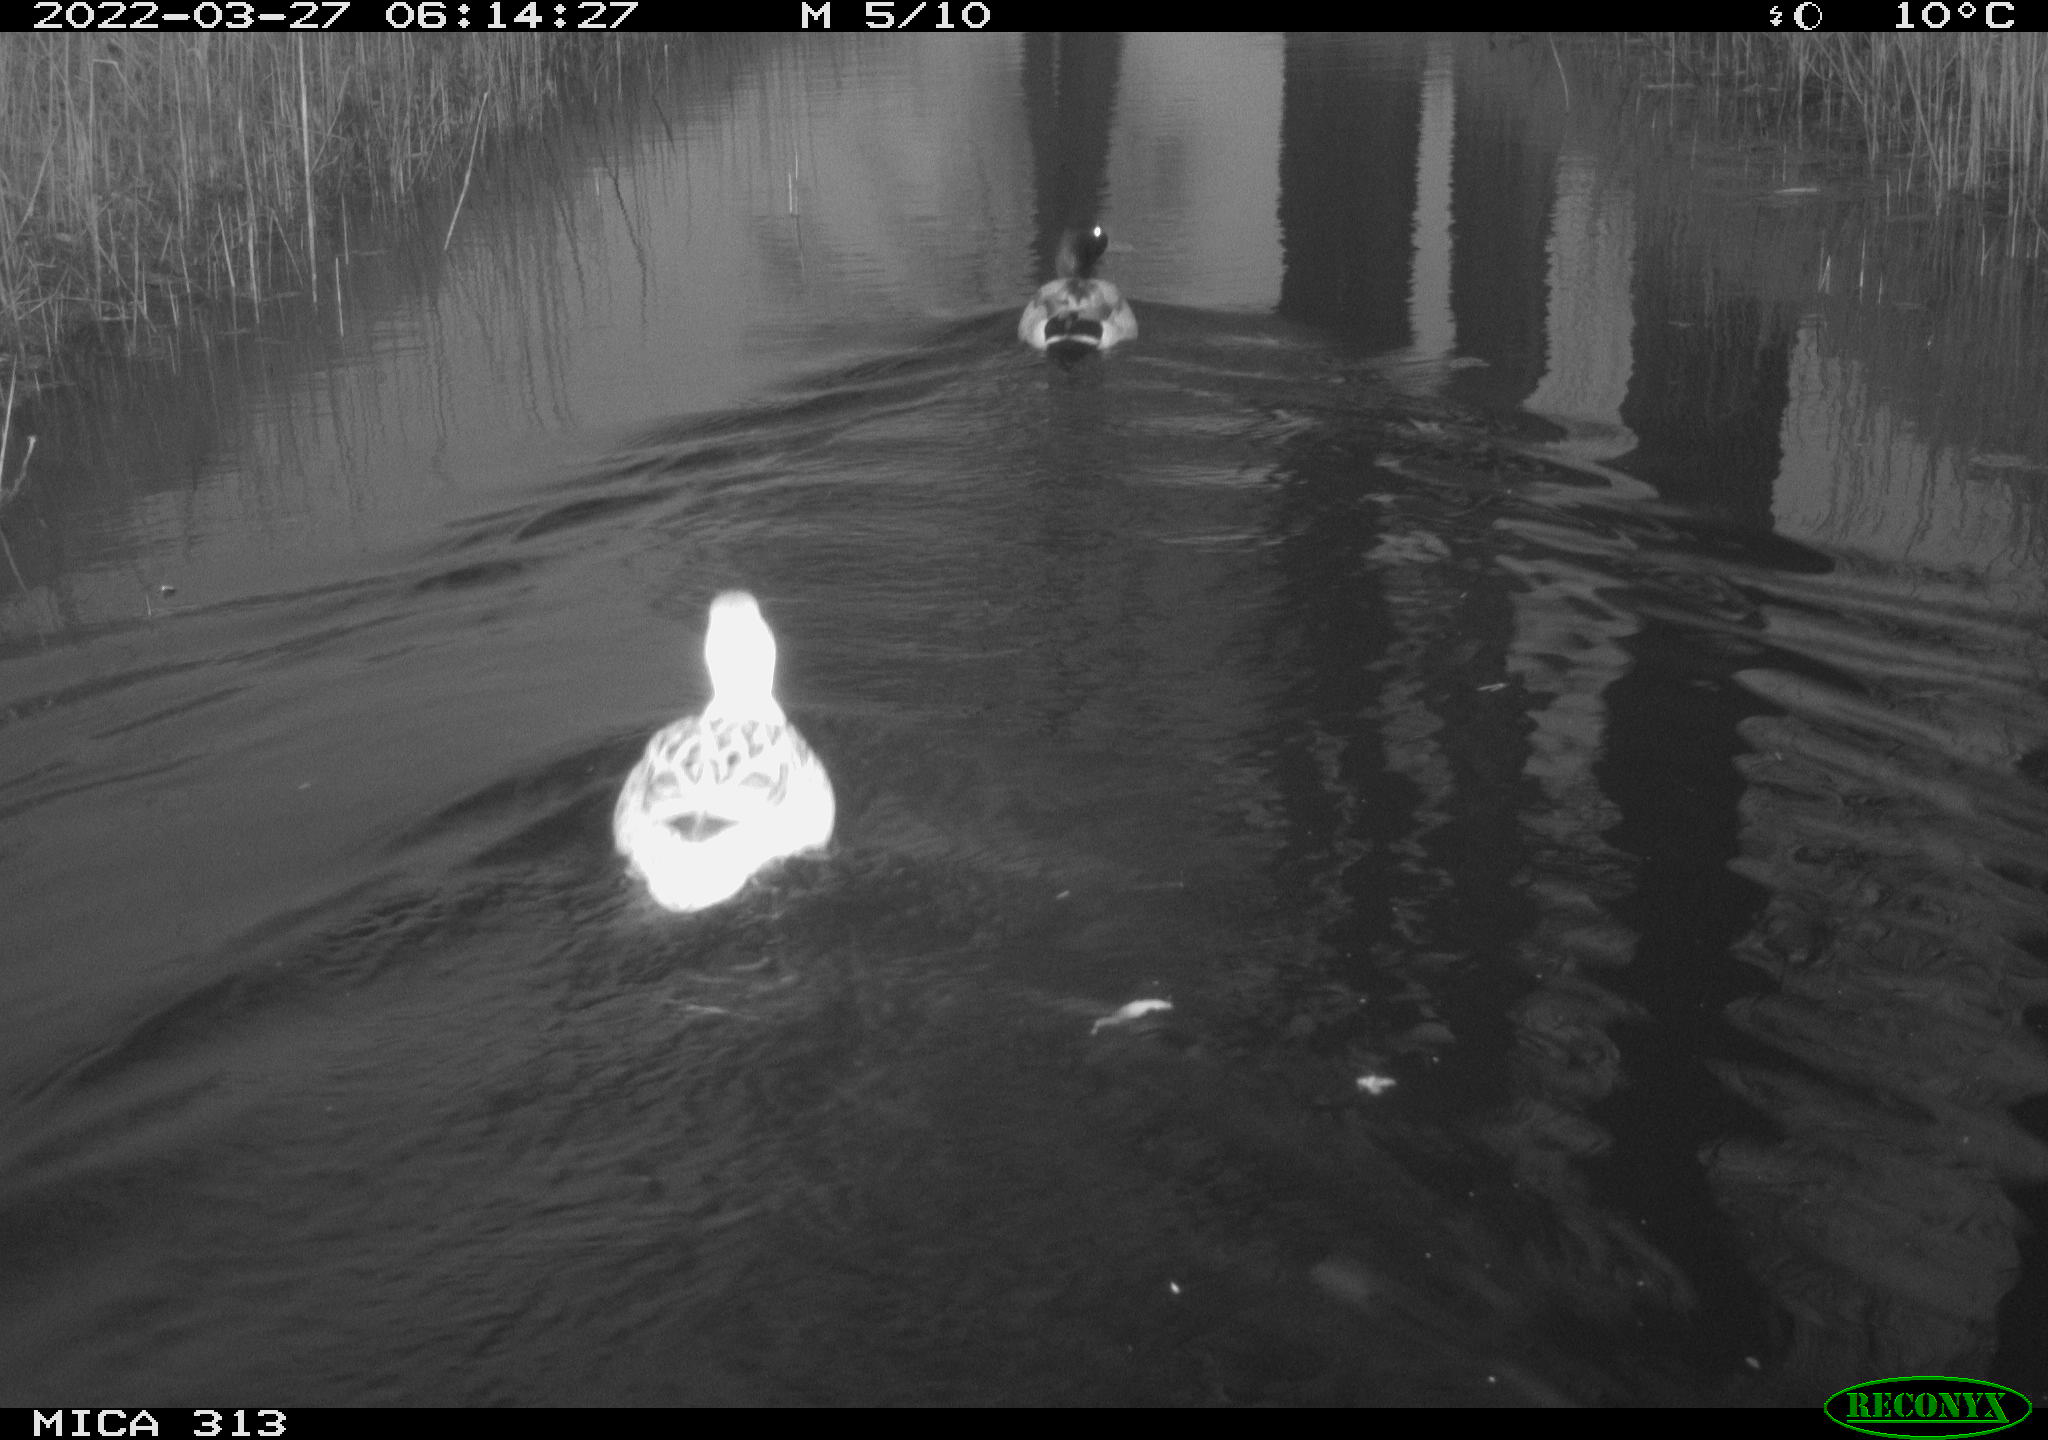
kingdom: Animalia
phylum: Chordata
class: Aves
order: Anseriformes
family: Anatidae
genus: Anas
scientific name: Anas platyrhynchos
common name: Mallard
